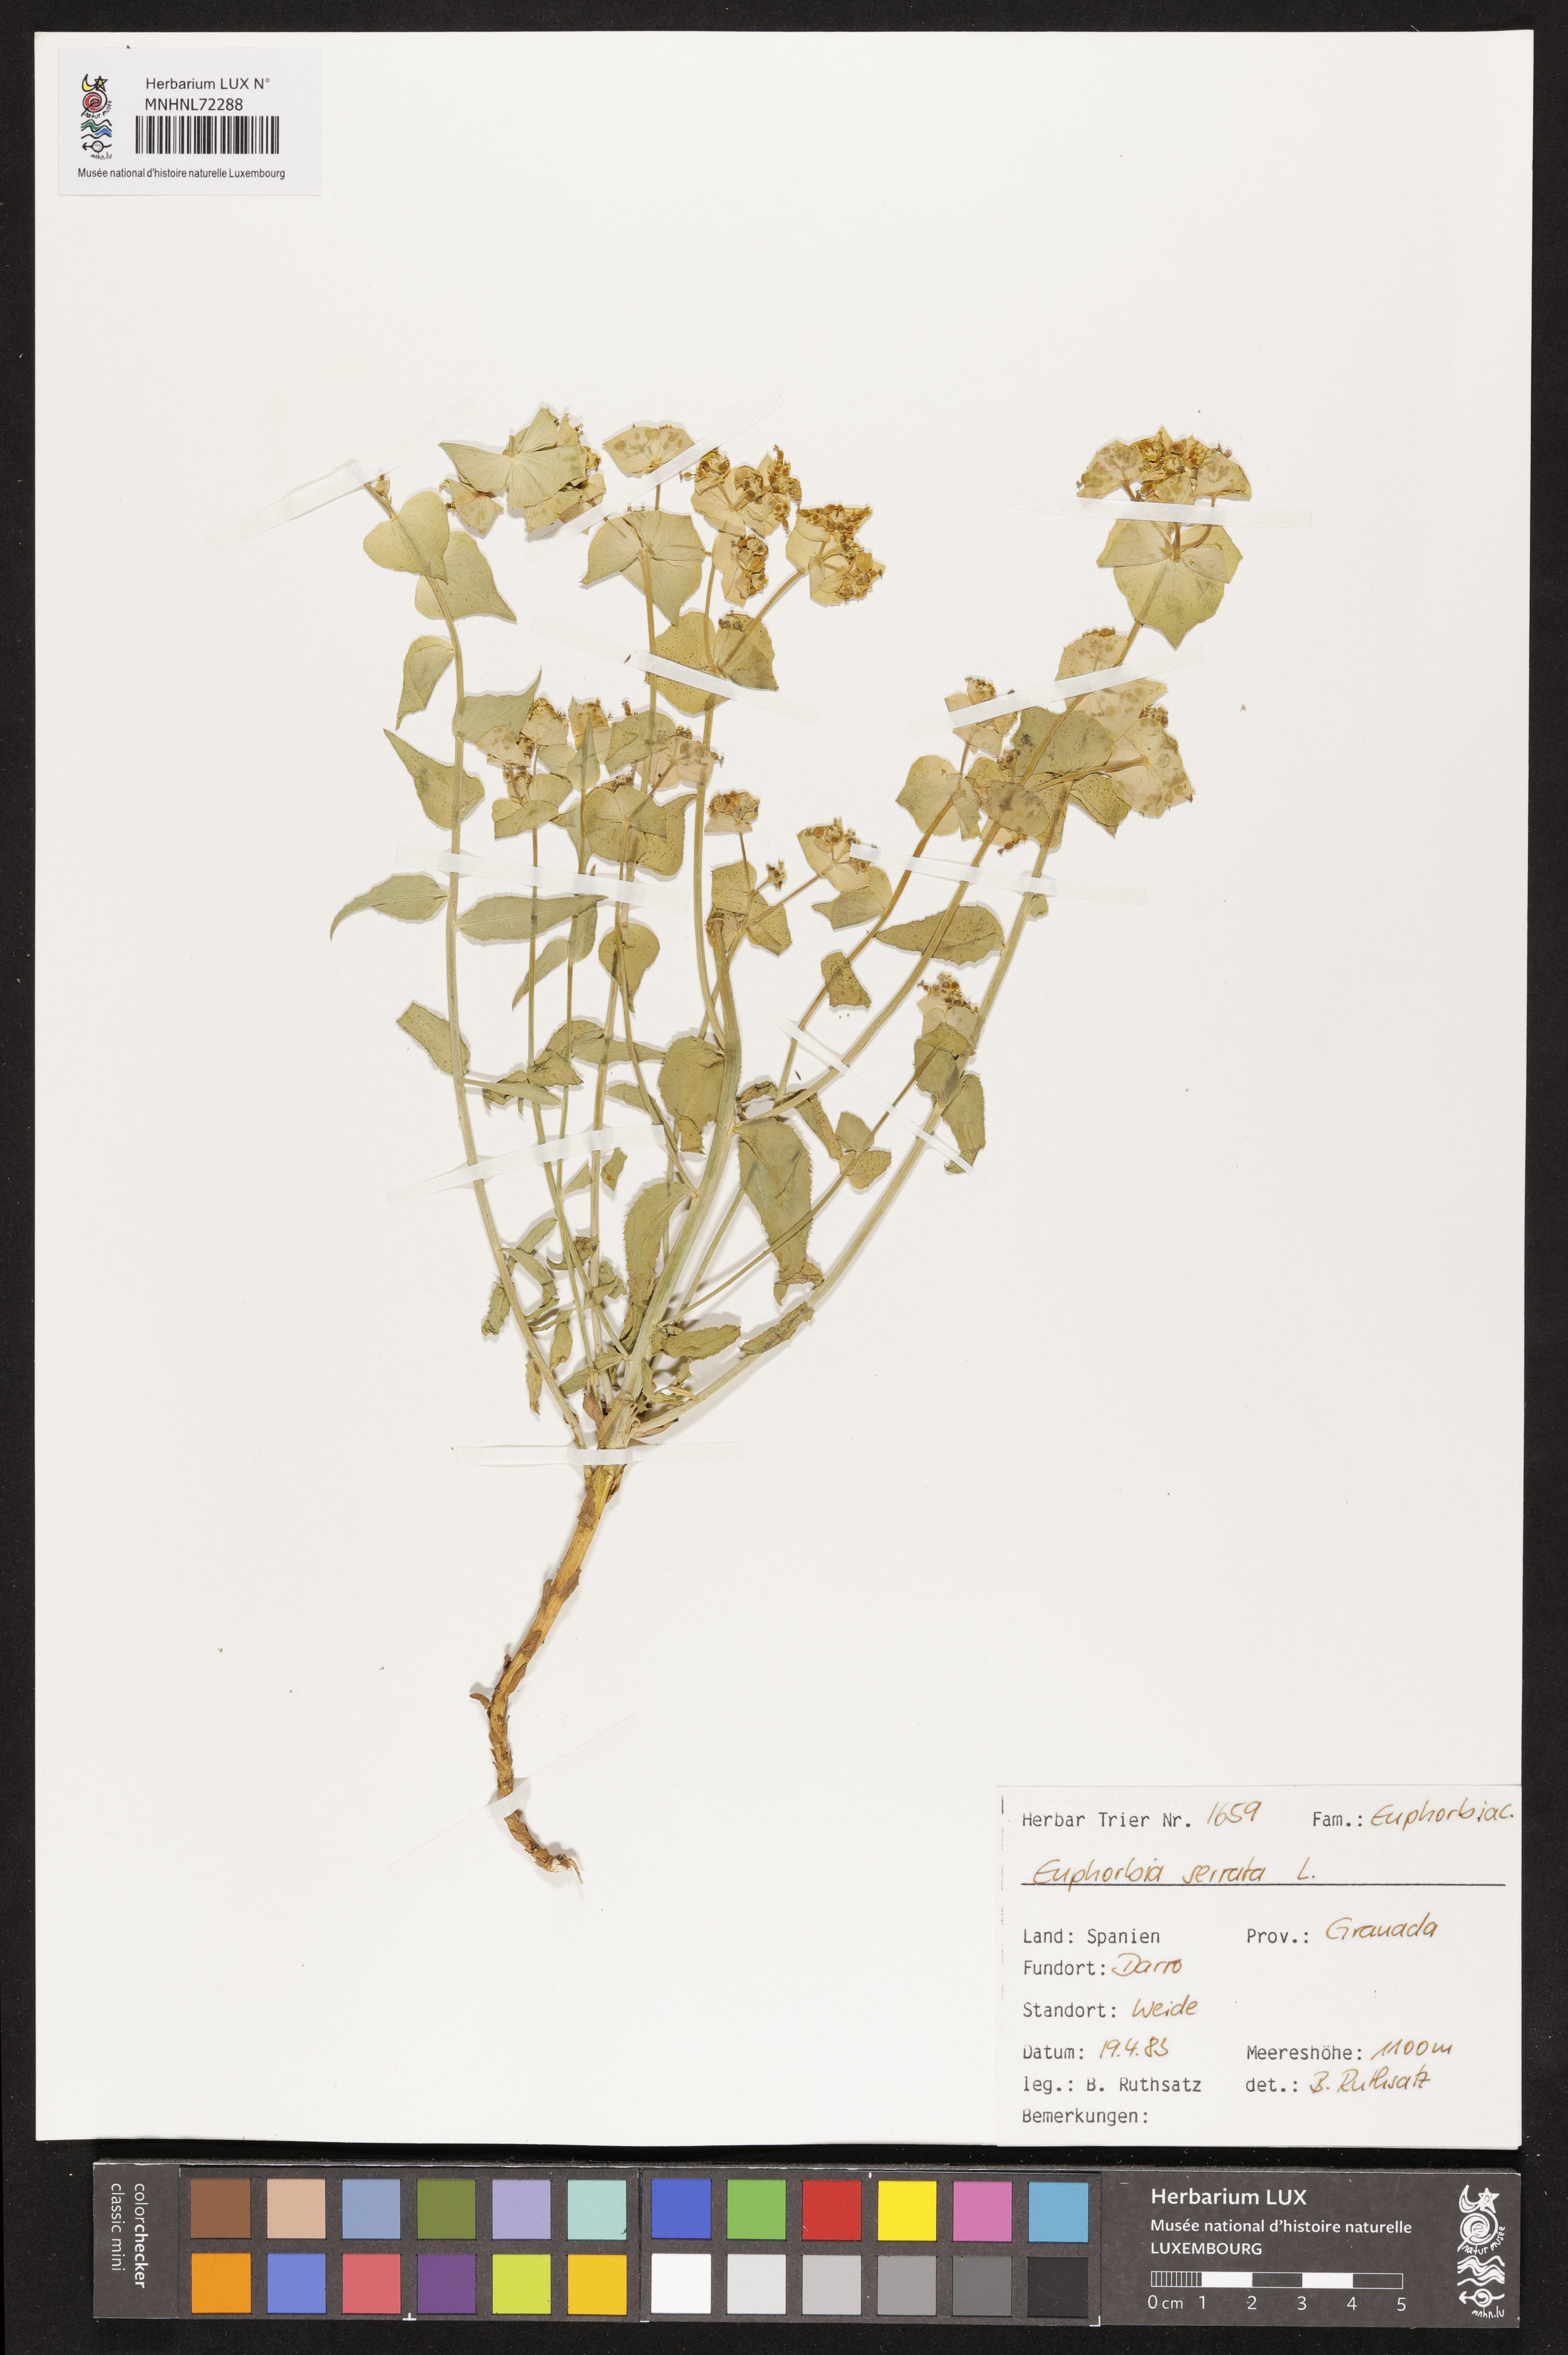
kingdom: Plantae
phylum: Tracheophyta
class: Magnoliopsida
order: Malpighiales
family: Euphorbiaceae
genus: Euphorbia
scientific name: Euphorbia serrata
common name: Serrate spurge
